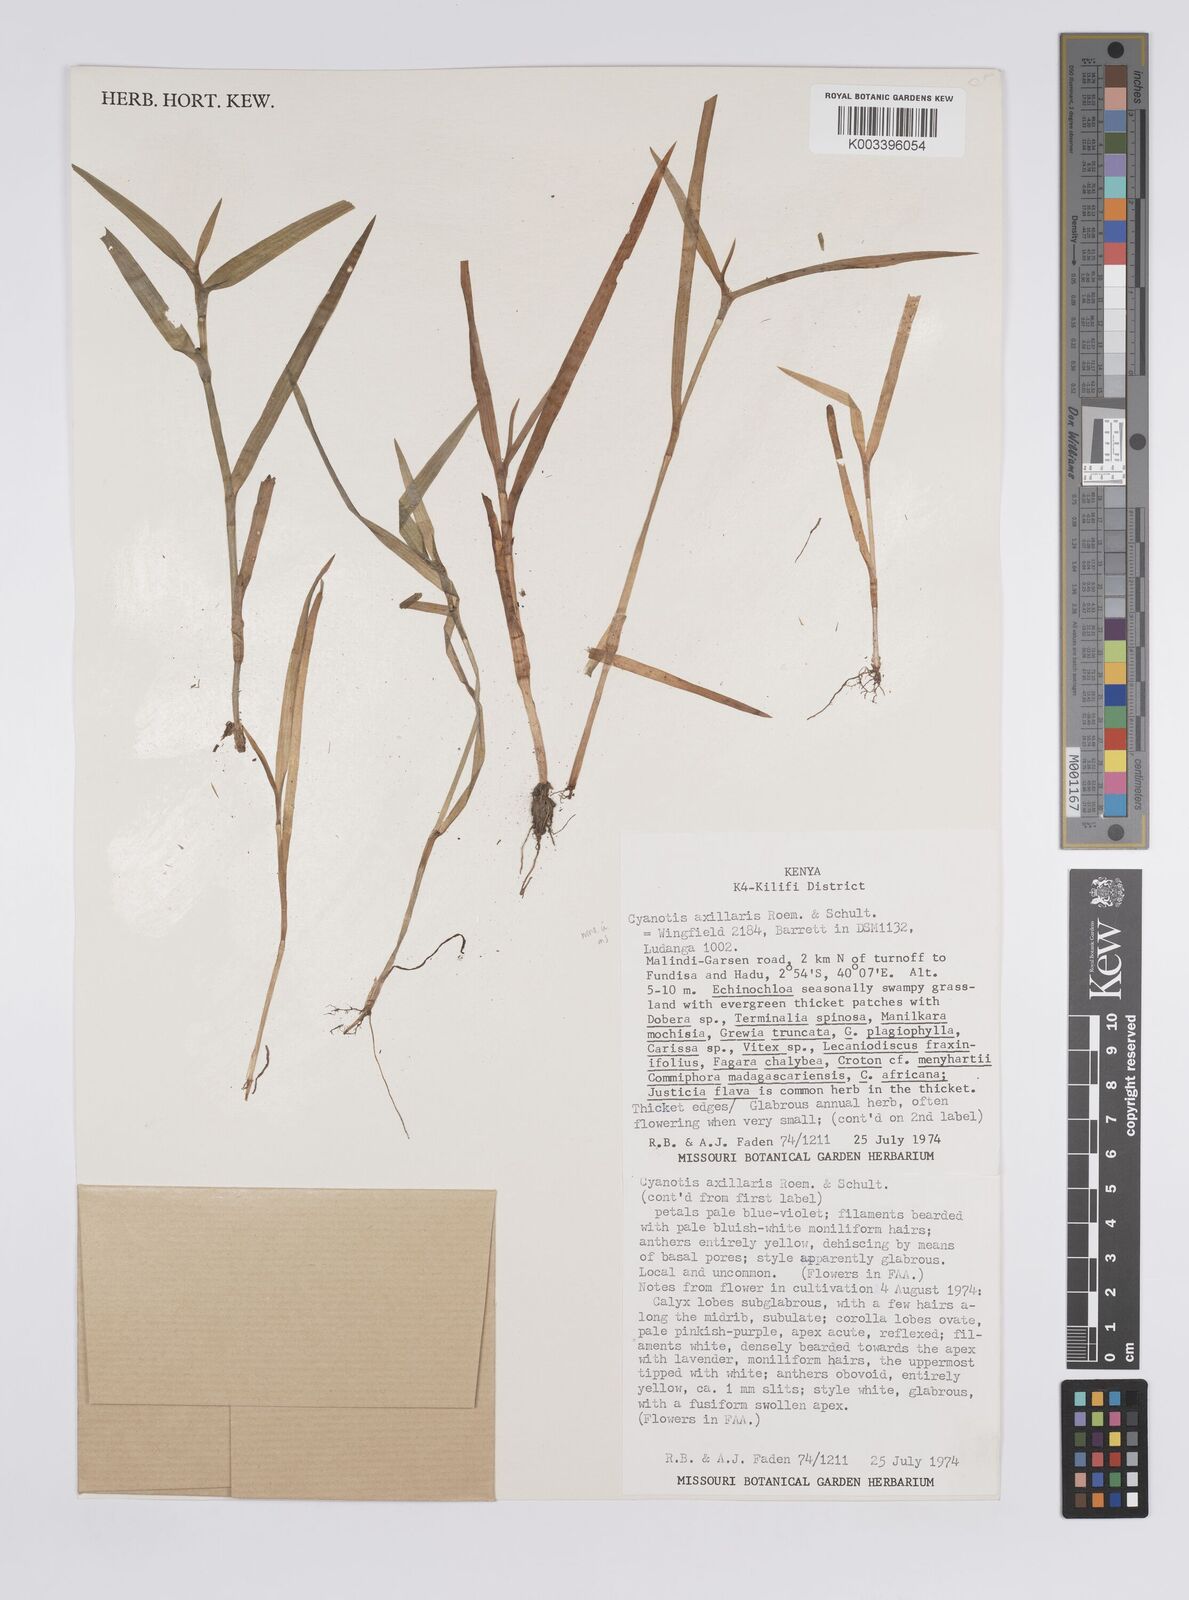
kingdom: Plantae
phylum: Tracheophyta
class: Liliopsida
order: Commelinales
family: Commelinaceae
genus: Cyanotis
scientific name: Cyanotis axillaris
